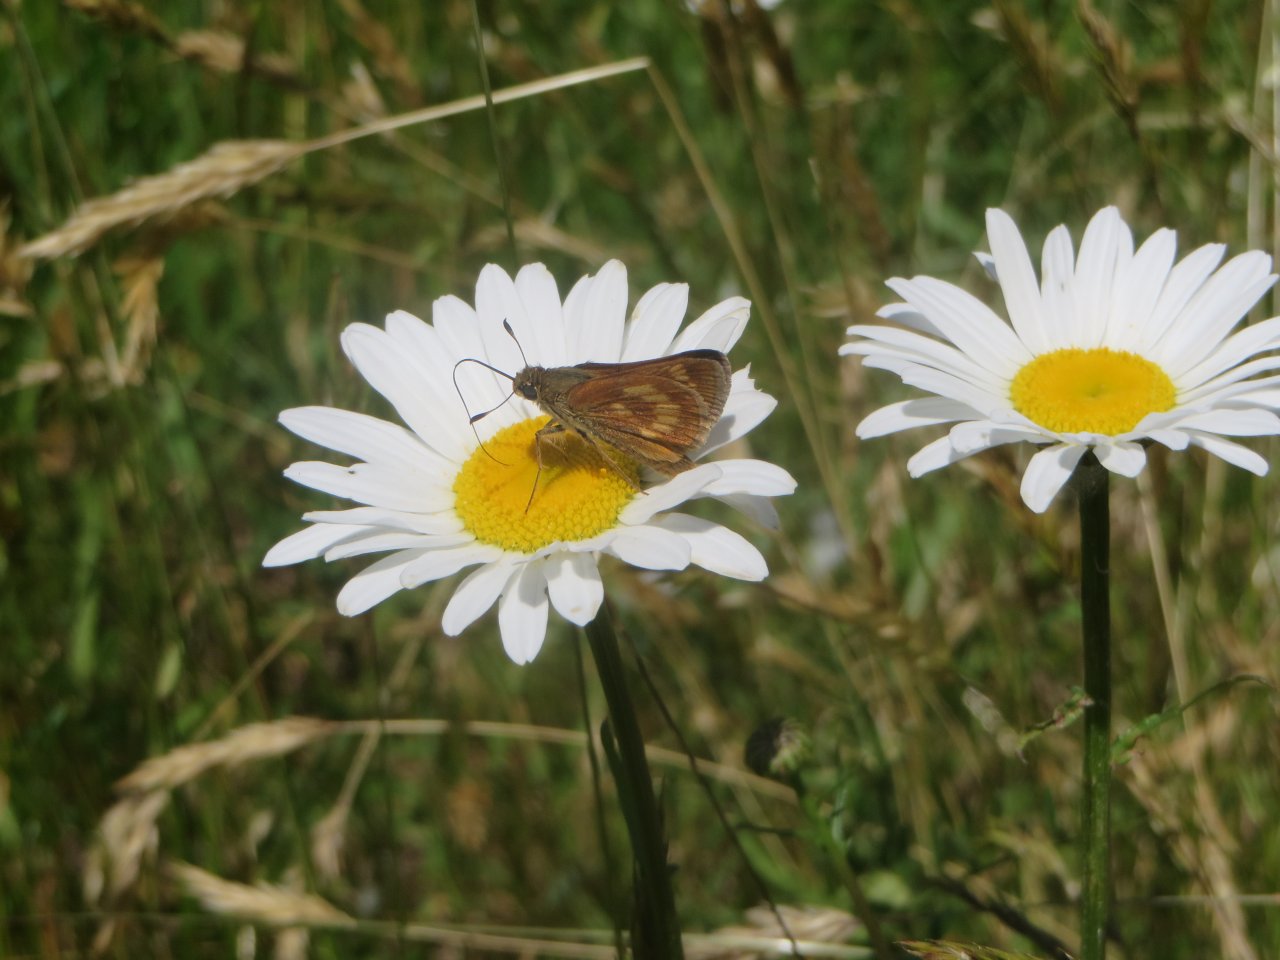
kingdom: Animalia
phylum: Arthropoda
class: Insecta
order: Lepidoptera
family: Hesperiidae
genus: Polites
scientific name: Polites
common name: Long Dash Skipper
